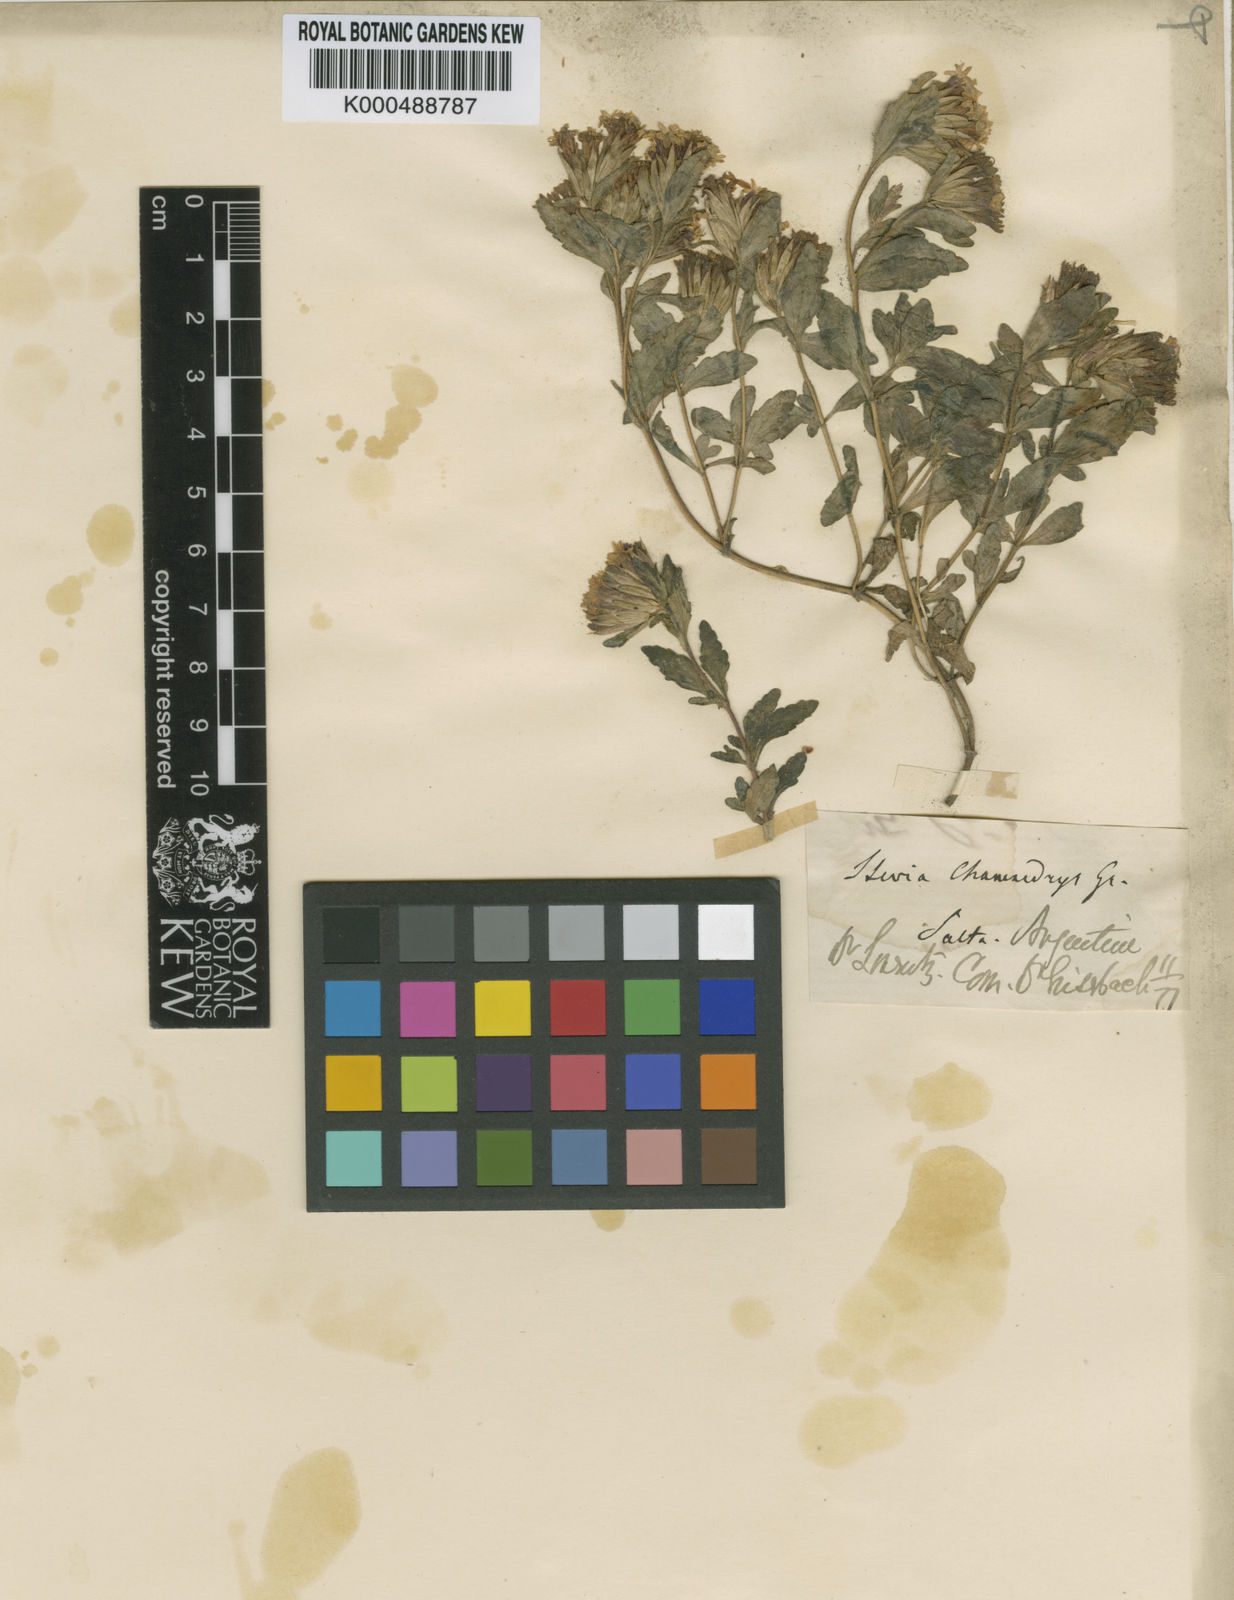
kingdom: Plantae
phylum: Tracheophyta
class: Magnoliopsida
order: Asterales
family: Asteraceae
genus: Stevia
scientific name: Stevia chamaedrys
